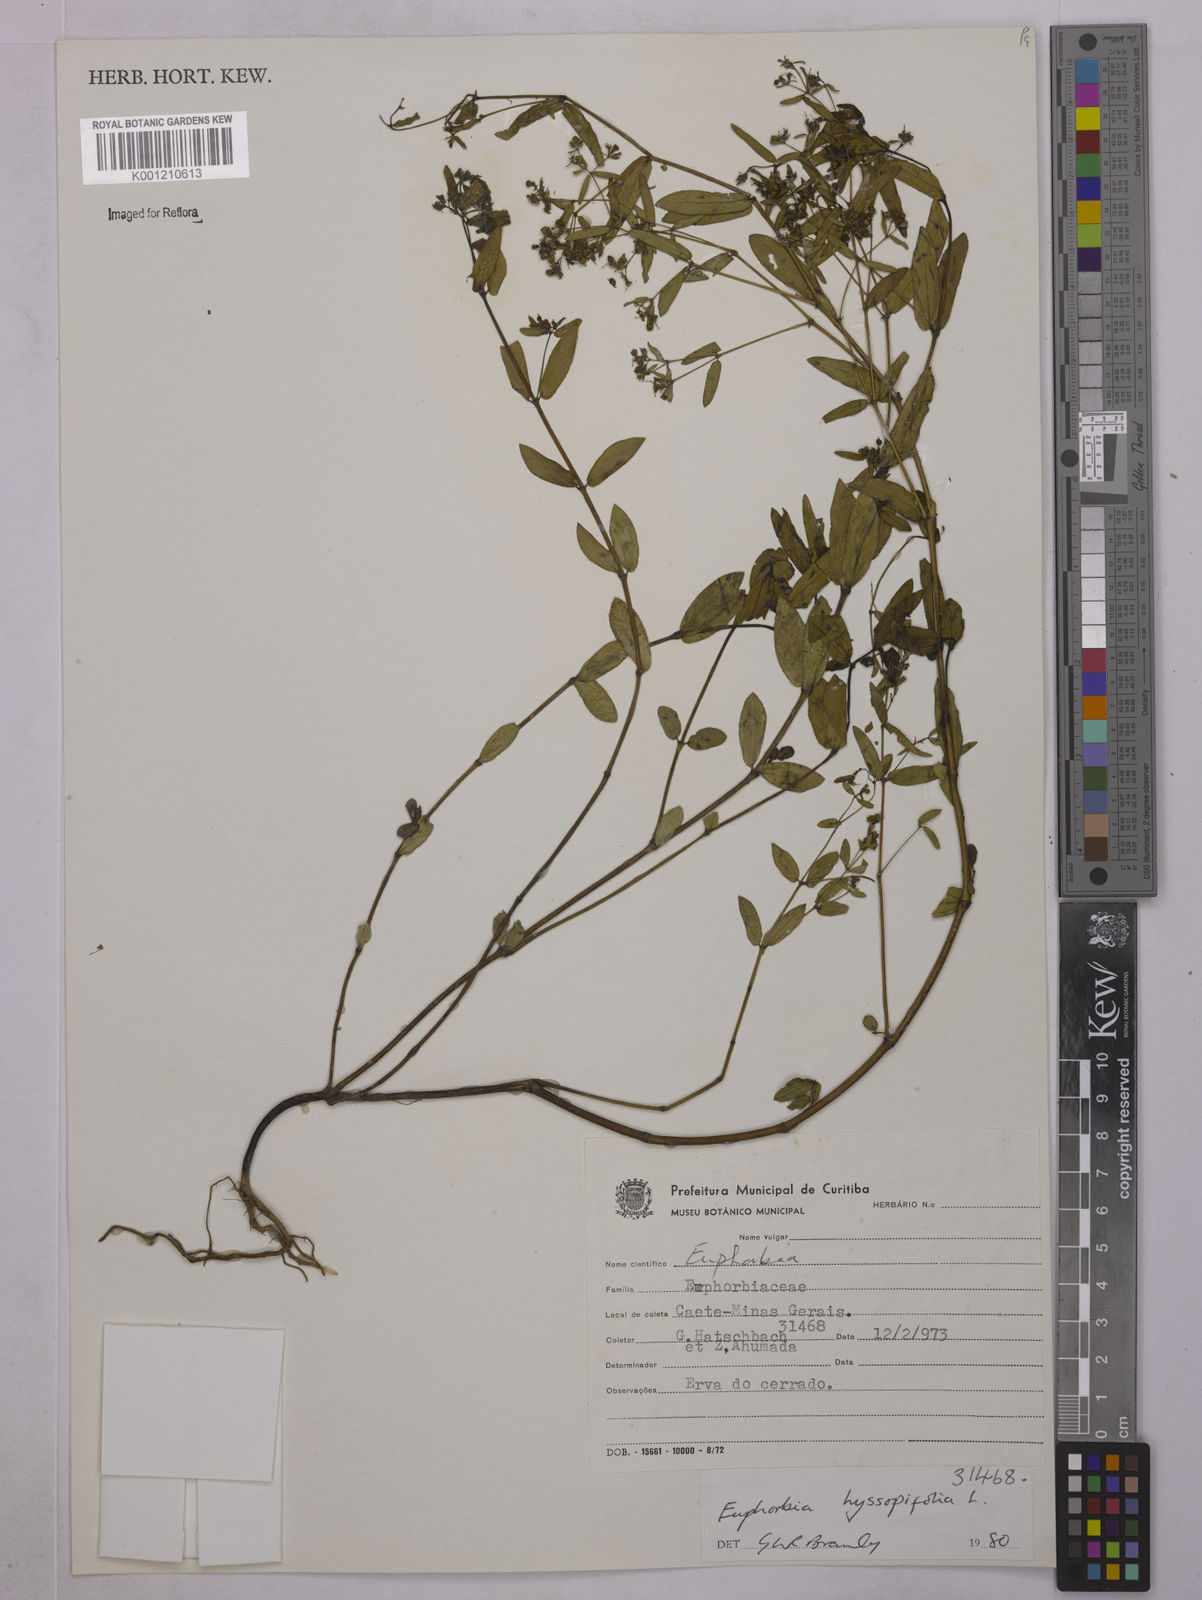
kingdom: Plantae
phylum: Tracheophyta
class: Magnoliopsida
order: Malpighiales
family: Euphorbiaceae
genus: Euphorbia
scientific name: Euphorbia hyssopifolia
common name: Hyssopleaf sandmat
